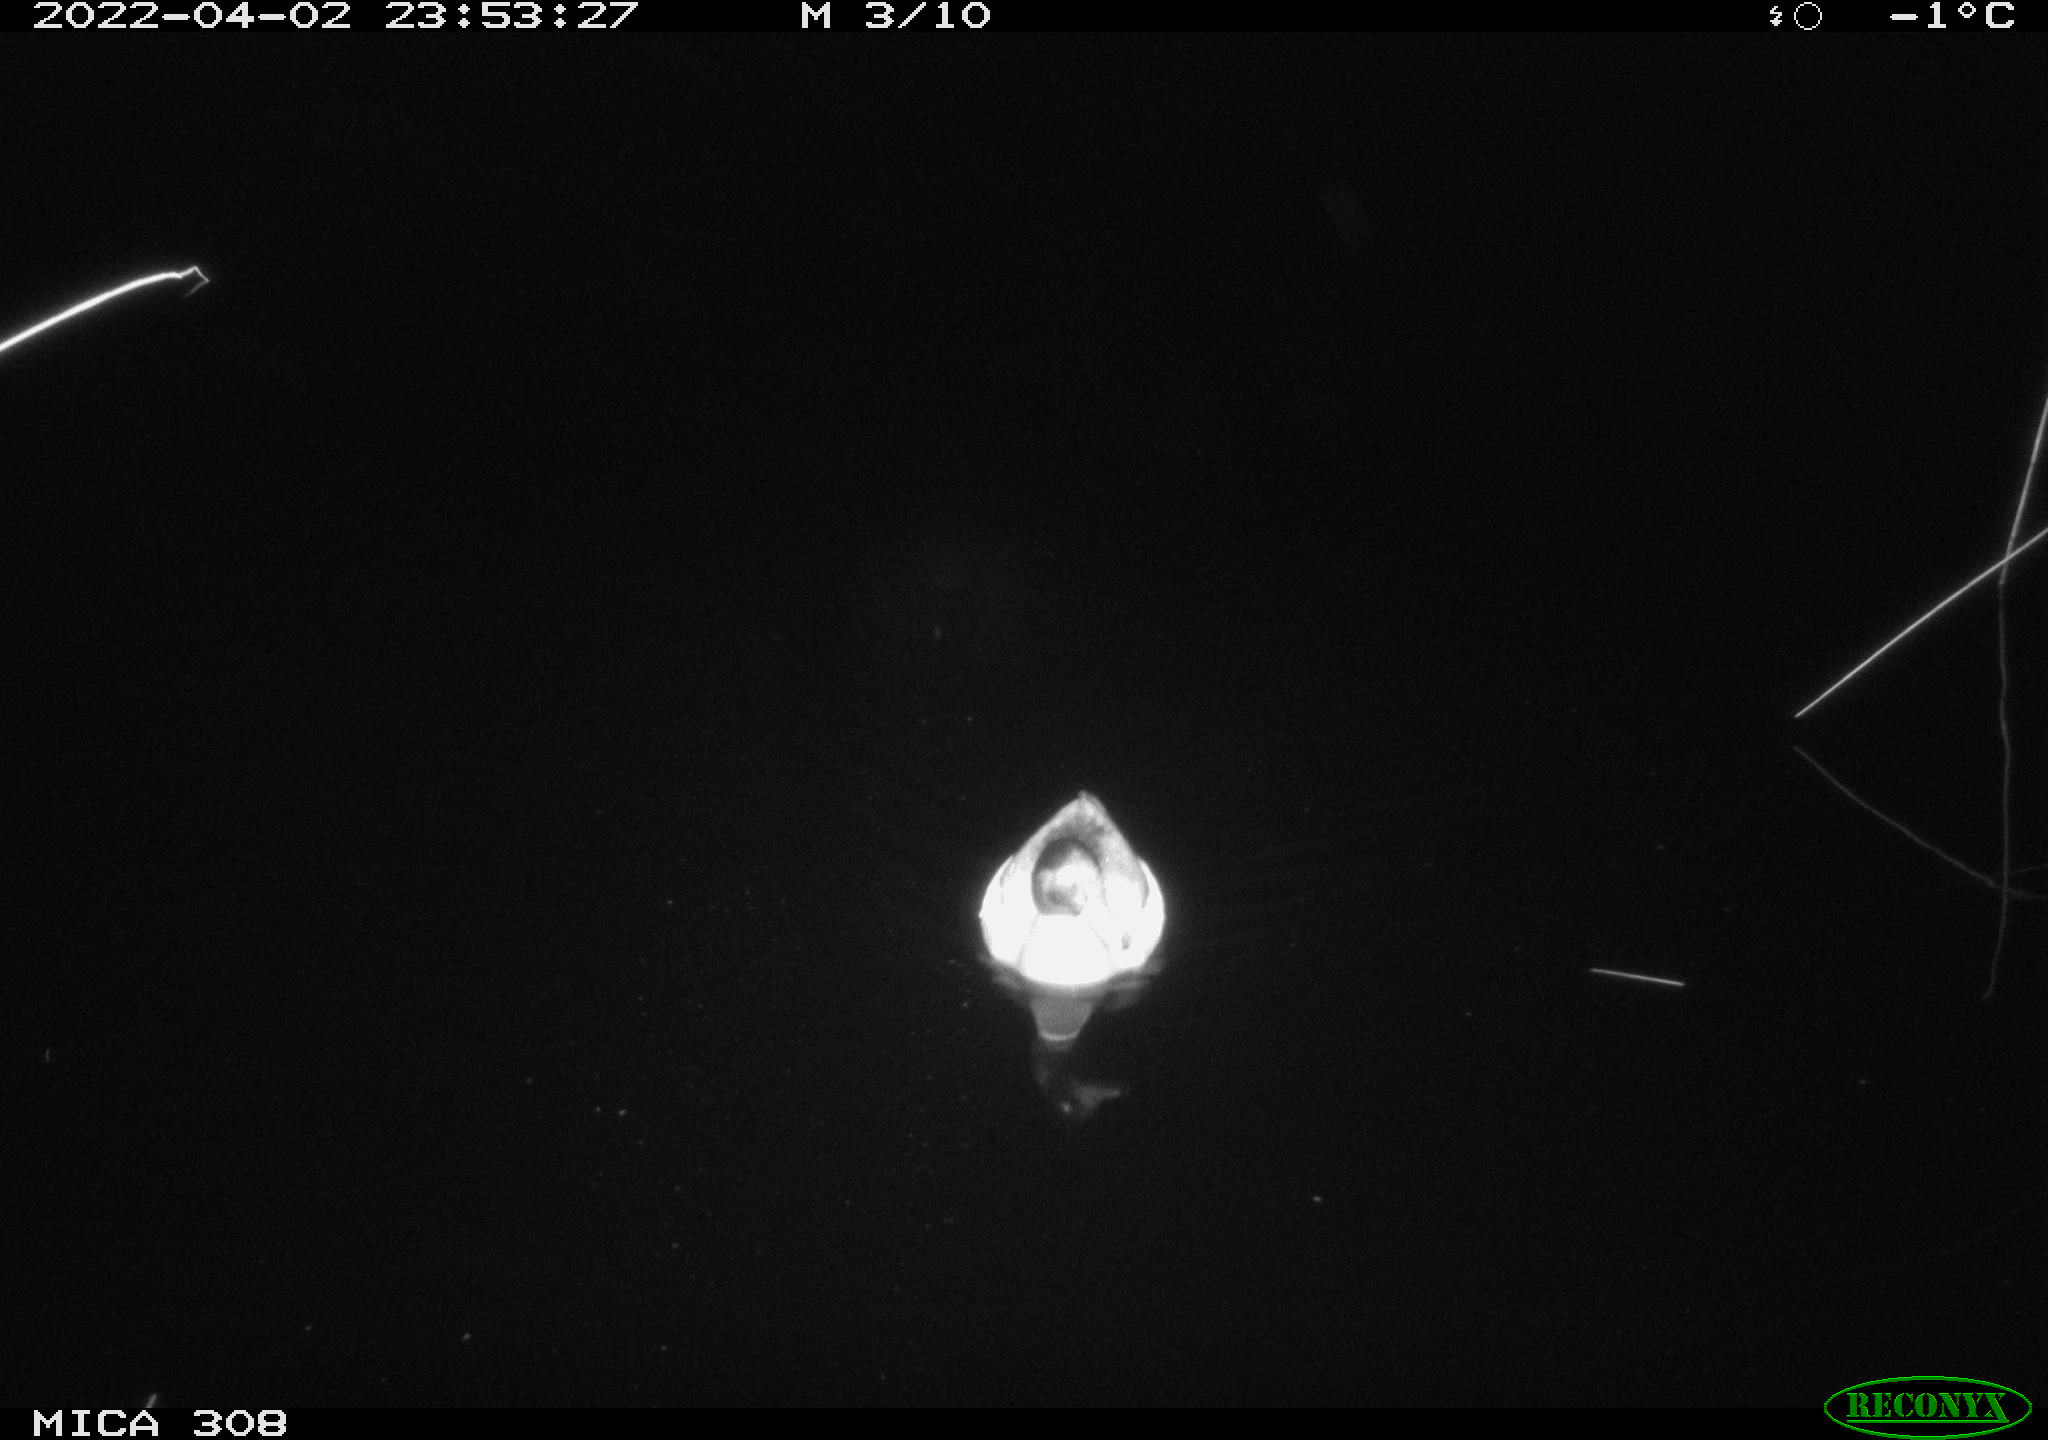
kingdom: Animalia
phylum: Chordata
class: Aves
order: Anseriformes
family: Anatidae
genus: Anas
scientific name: Anas platyrhynchos
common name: Mallard
